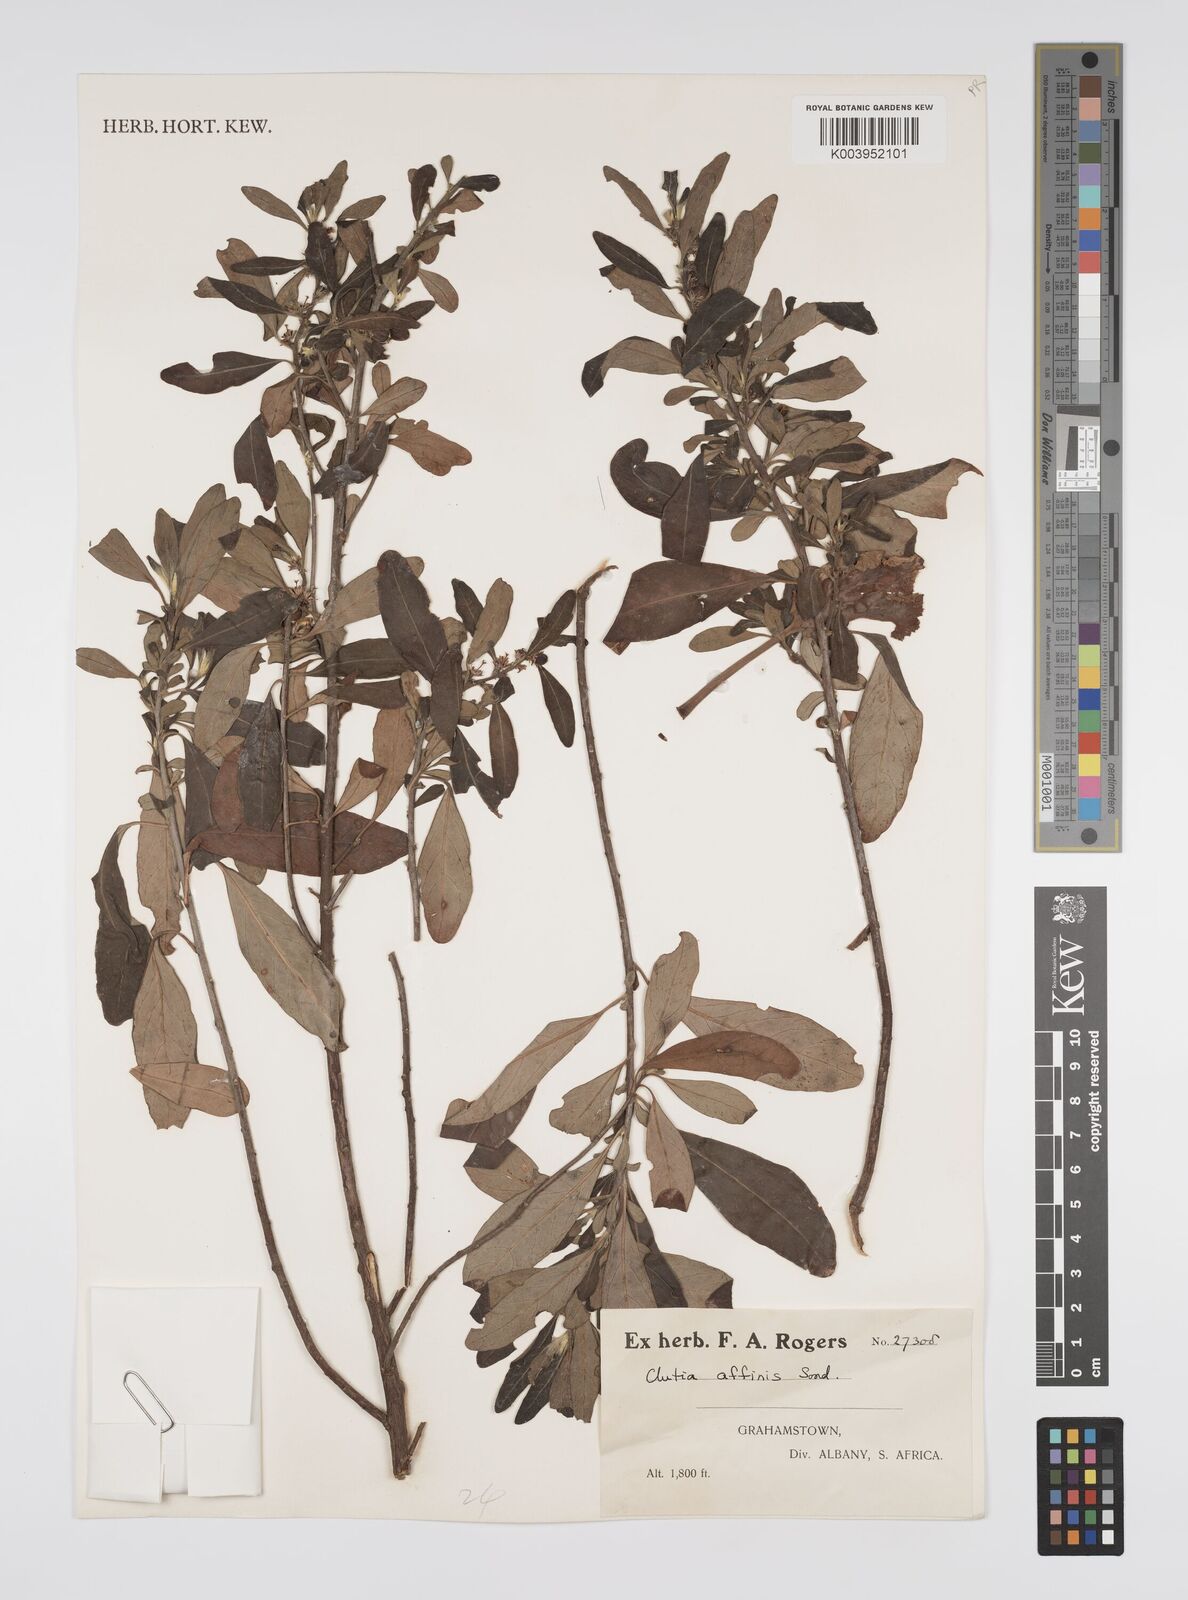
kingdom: Plantae
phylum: Tracheophyta
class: Magnoliopsida
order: Malpighiales
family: Peraceae
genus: Clutia
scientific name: Clutia affinis
